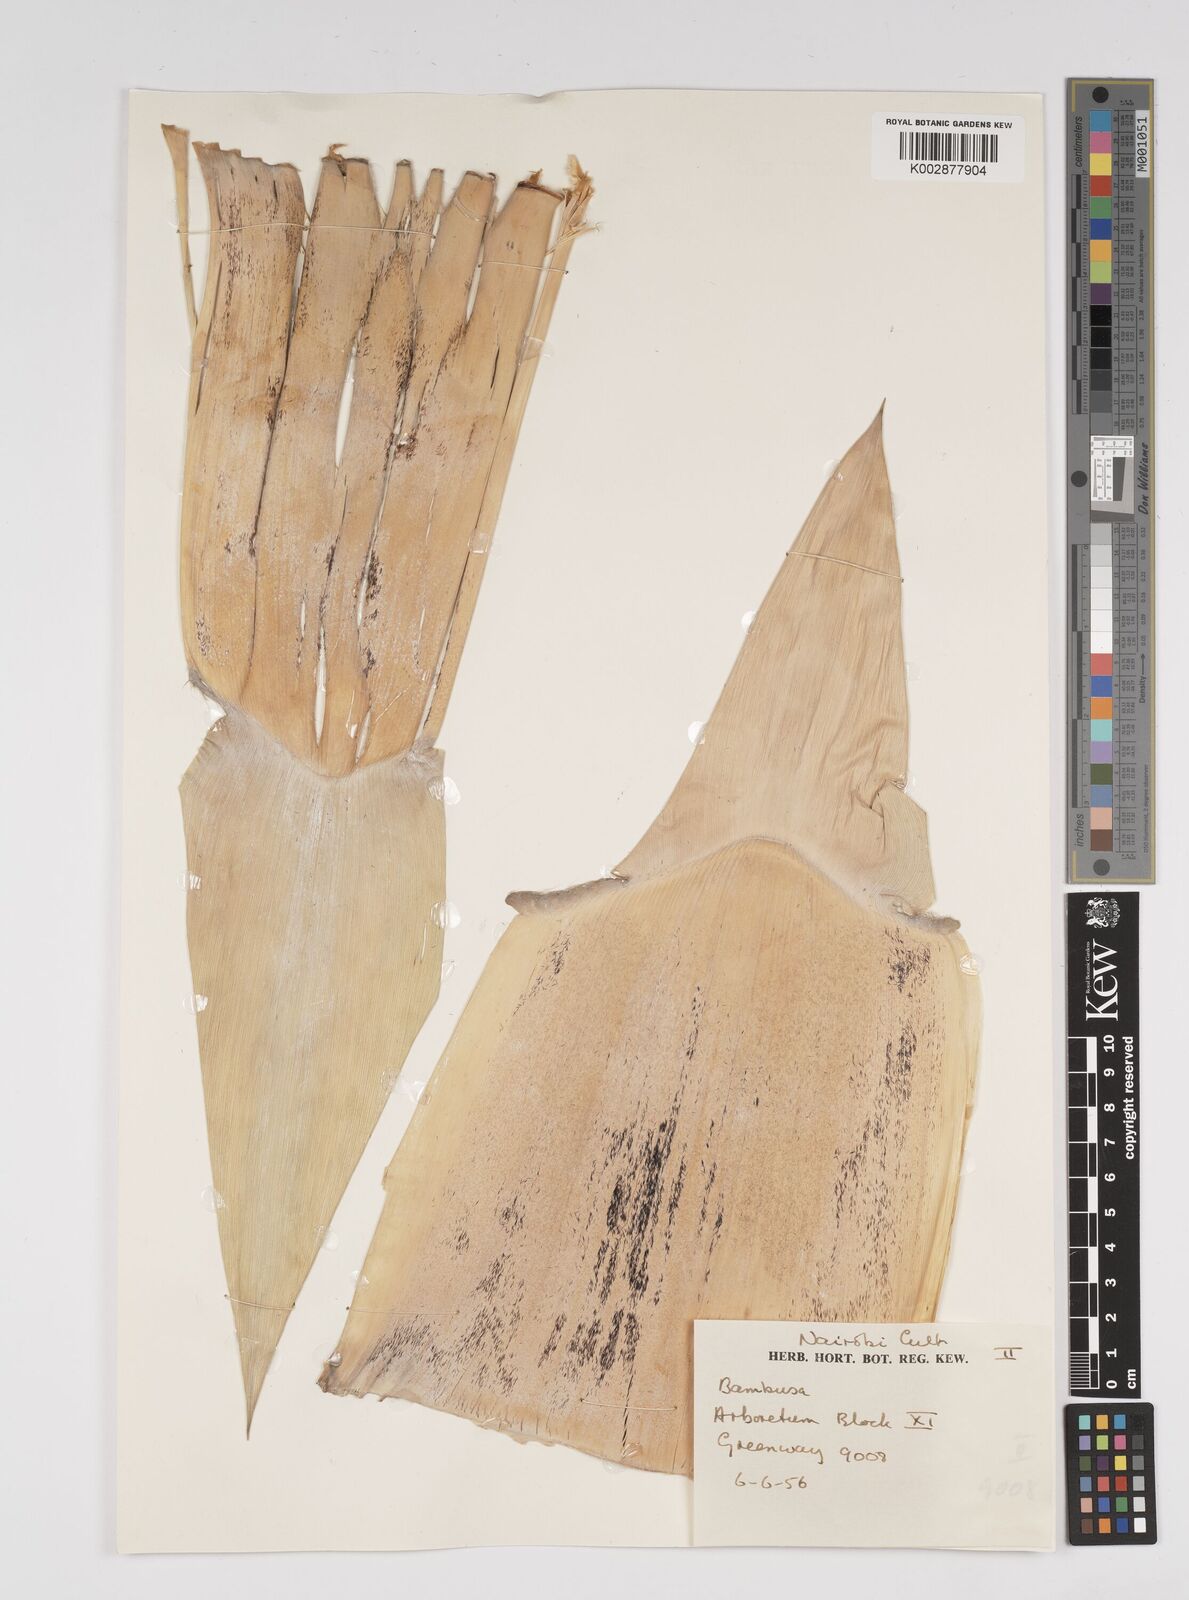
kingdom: Plantae
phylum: Tracheophyta
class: Liliopsida
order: Poales
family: Poaceae
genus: Bambusa
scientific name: Bambusa
